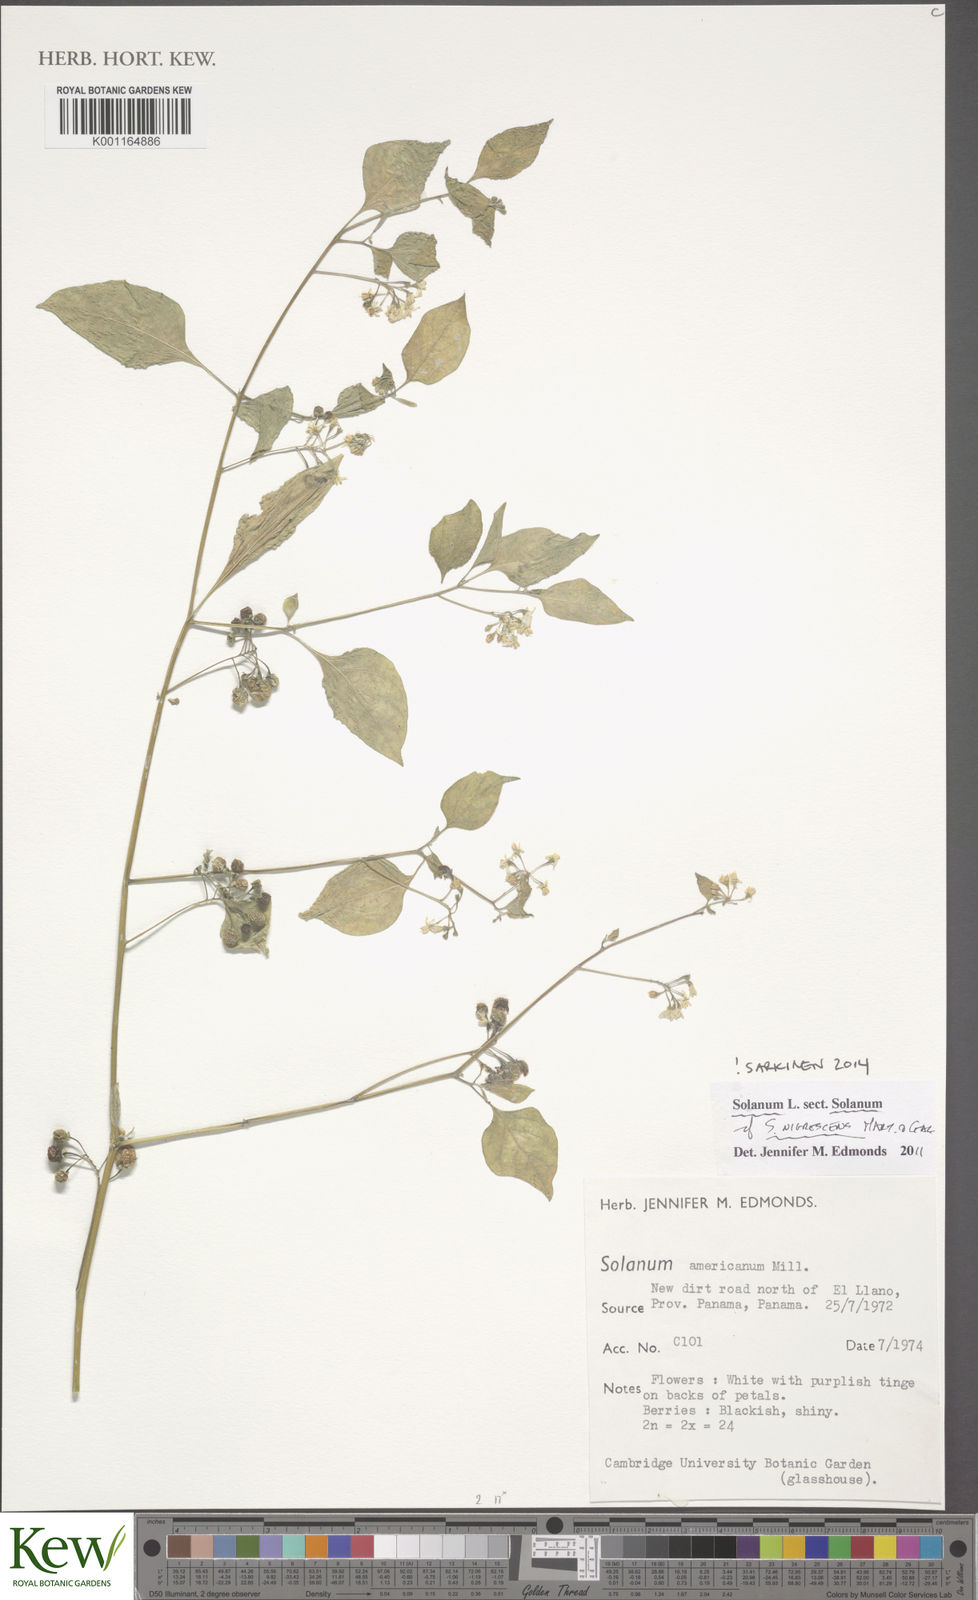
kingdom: Plantae
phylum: Tracheophyta
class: Magnoliopsida
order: Solanales
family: Solanaceae
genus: Solanum
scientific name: Solanum nigrescens
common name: Divine nightshade
